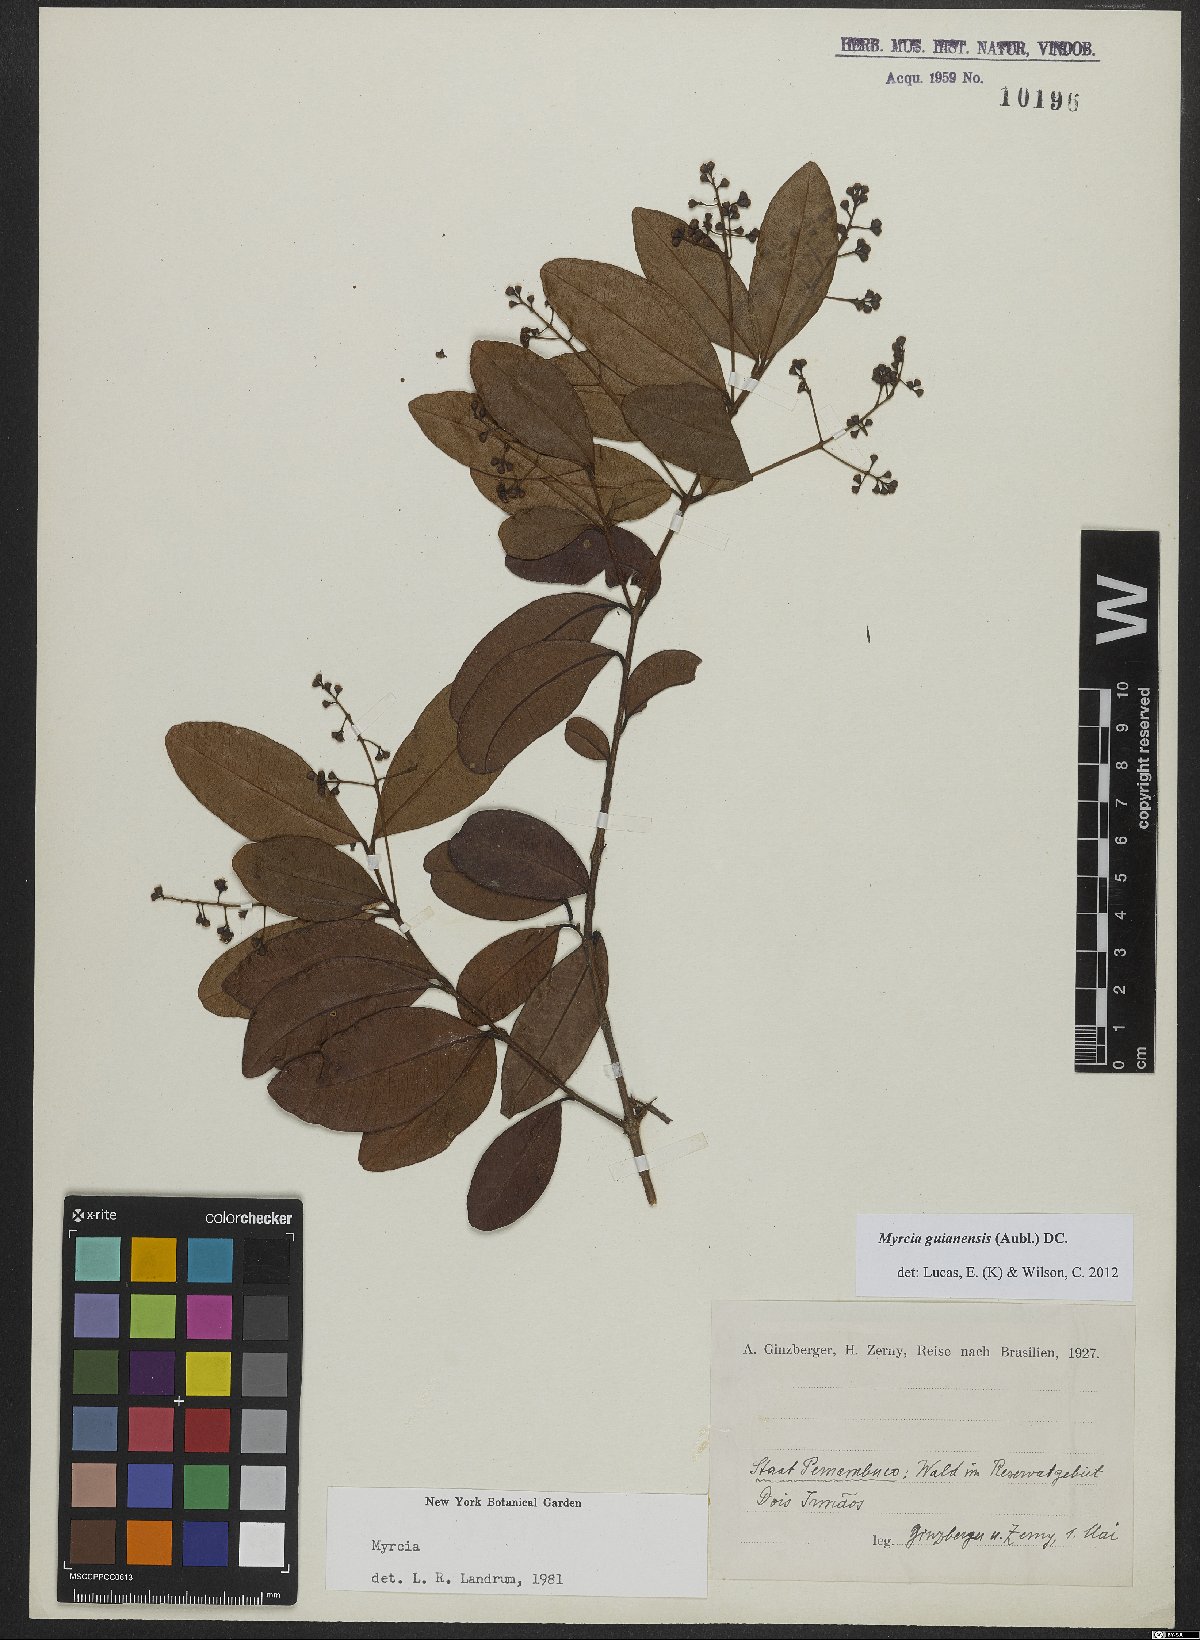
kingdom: Plantae
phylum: Tracheophyta
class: Magnoliopsida
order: Myrtales
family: Myrtaceae
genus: Myrcia
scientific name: Myrcia guianensis
